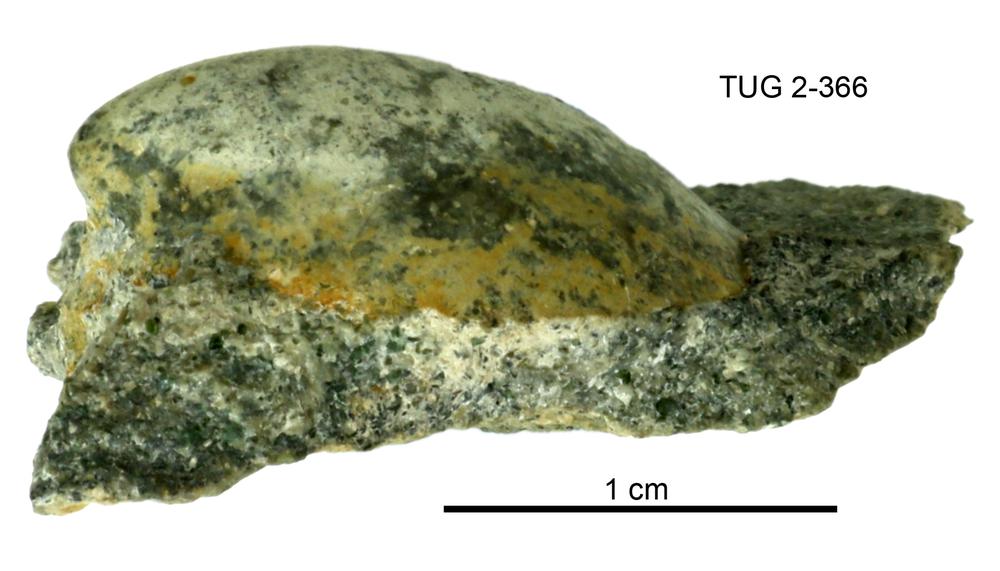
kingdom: Animalia
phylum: Mollusca
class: Gastropoda
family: Archinacellidae
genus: Archinacella
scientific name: Archinacella rostrata
